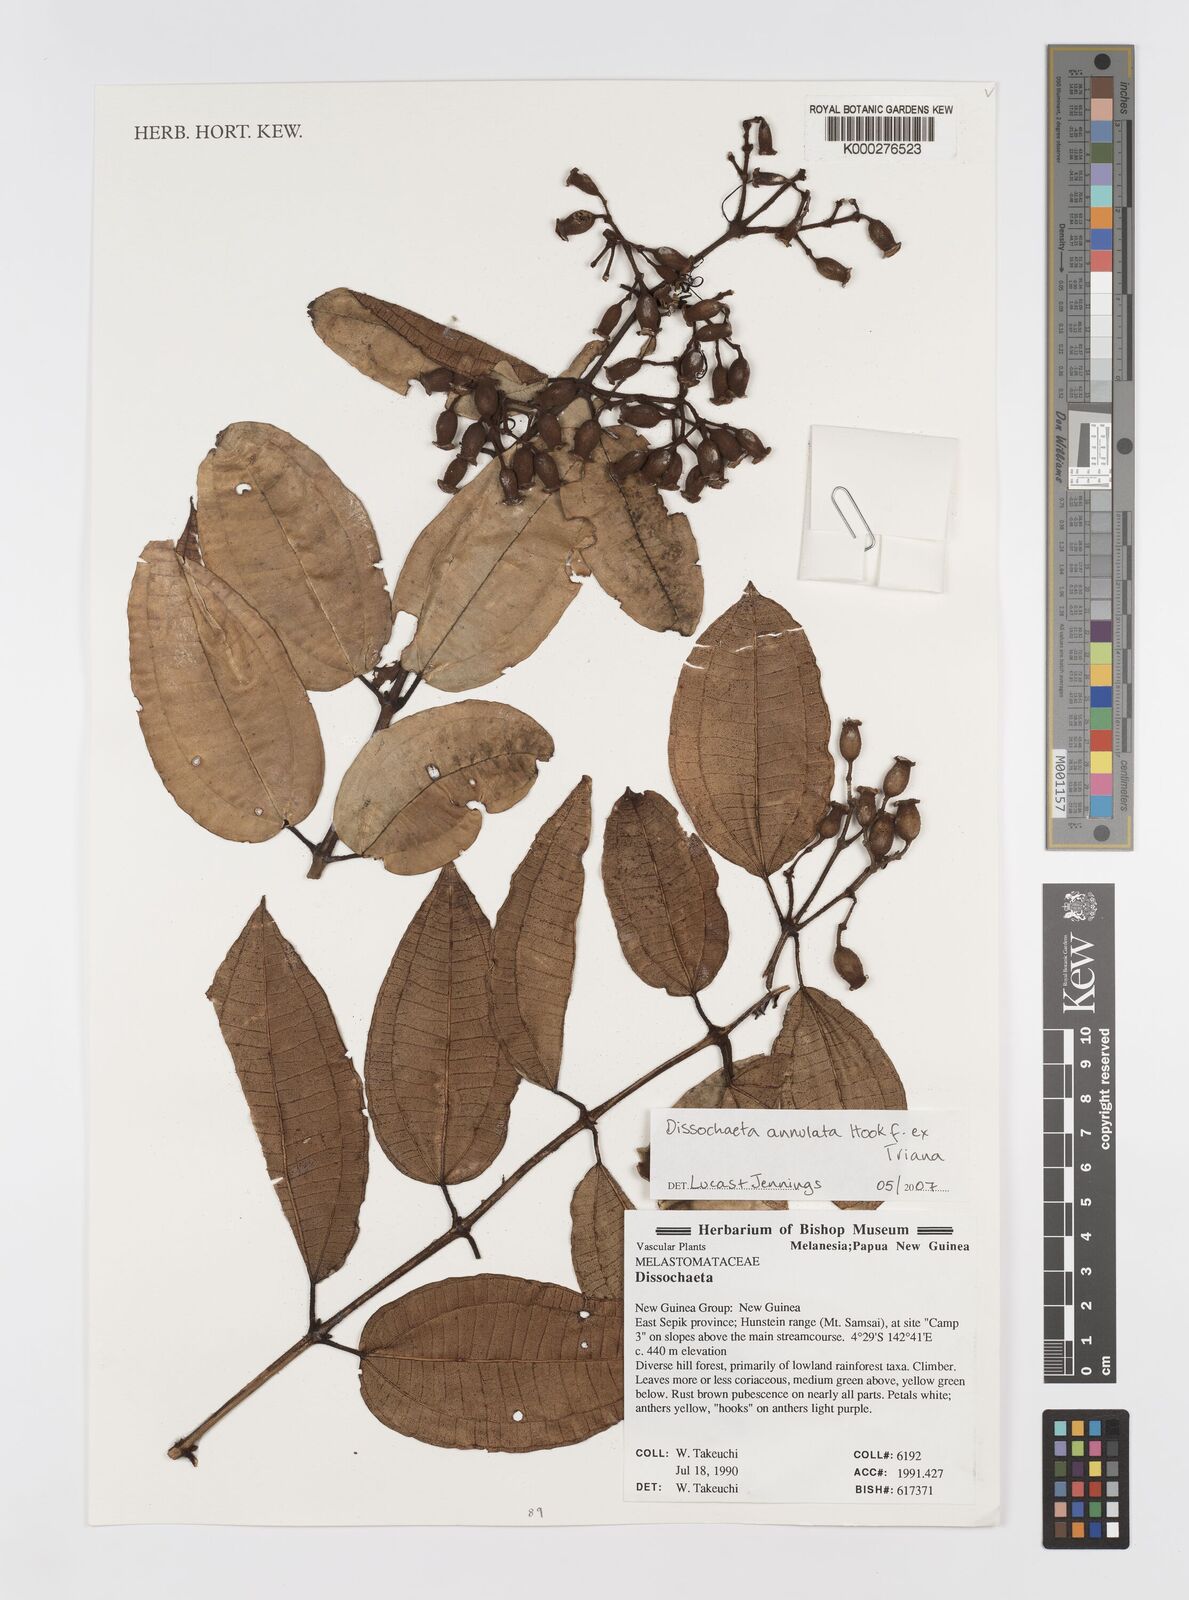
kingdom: Plantae
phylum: Tracheophyta
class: Magnoliopsida
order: Myrtales
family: Melastomataceae
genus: Dissochaeta
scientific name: Dissochaeta annulata
